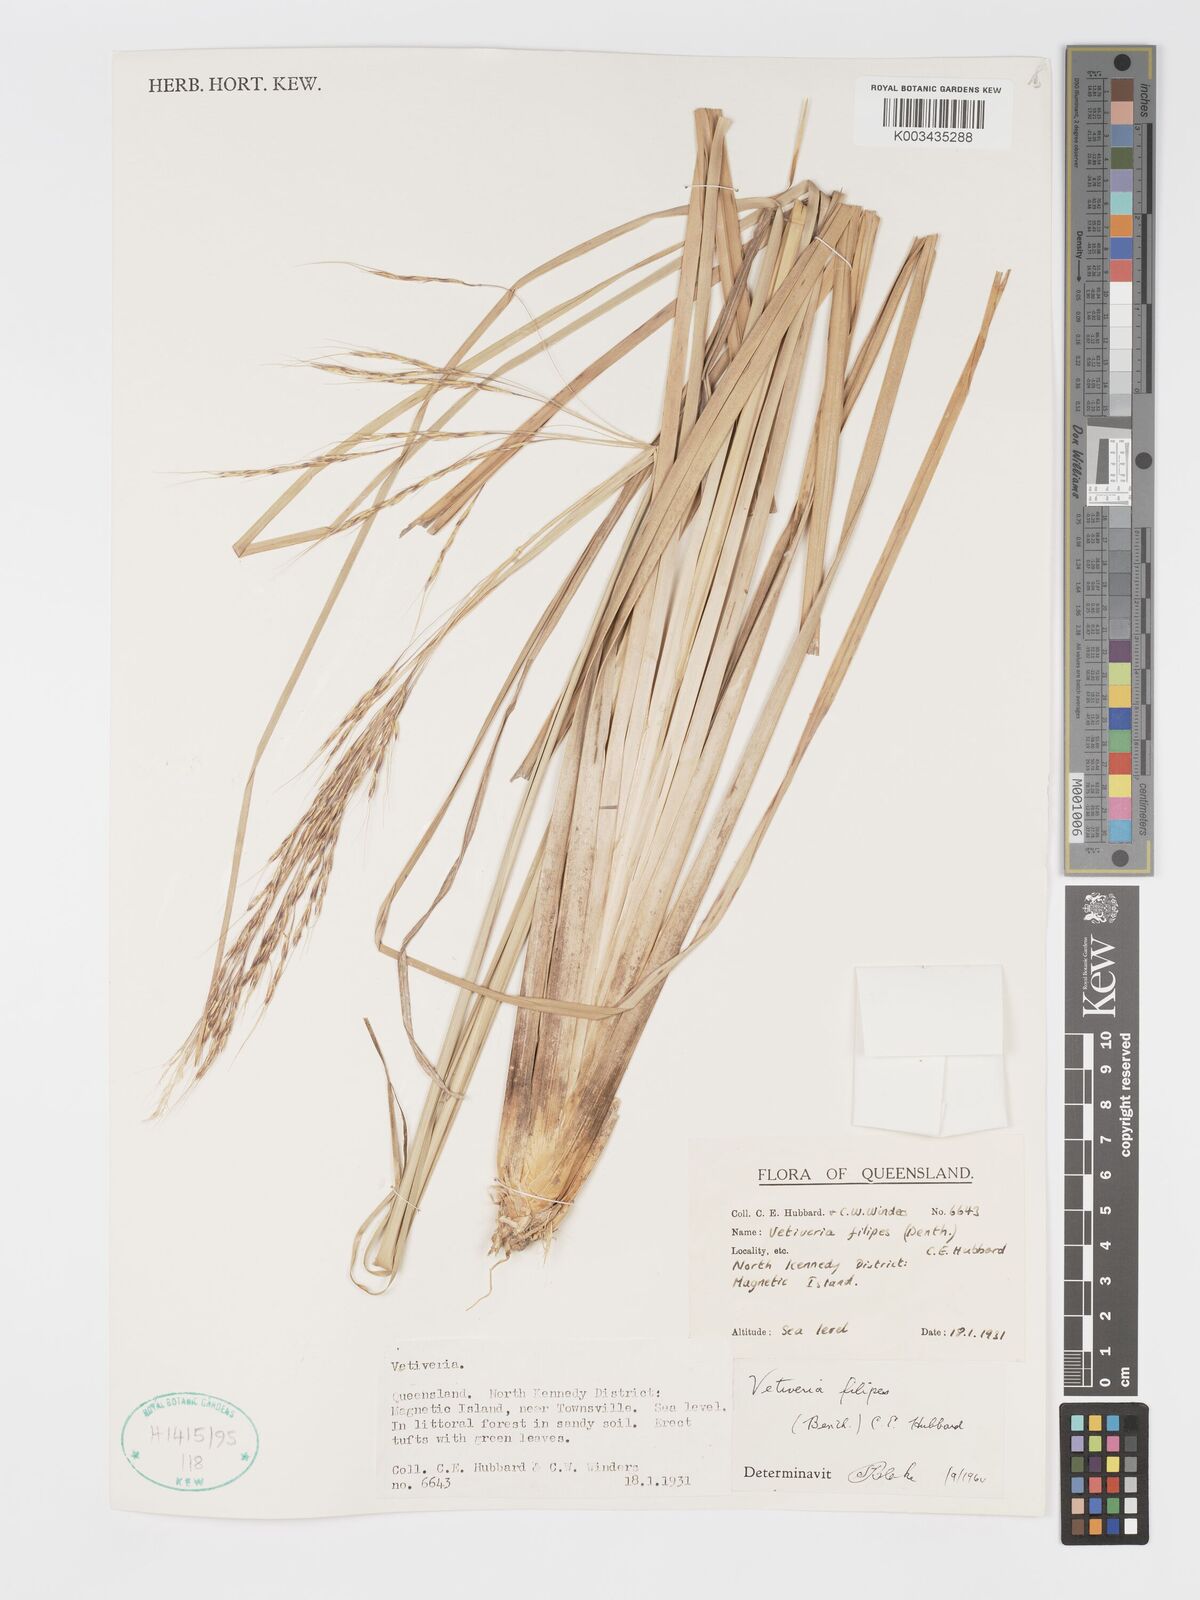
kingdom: Plantae
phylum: Tracheophyta
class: Liliopsida
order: Poales
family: Poaceae
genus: Chrysopogon
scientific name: Chrysopogon filipes
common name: Australian vetiver
